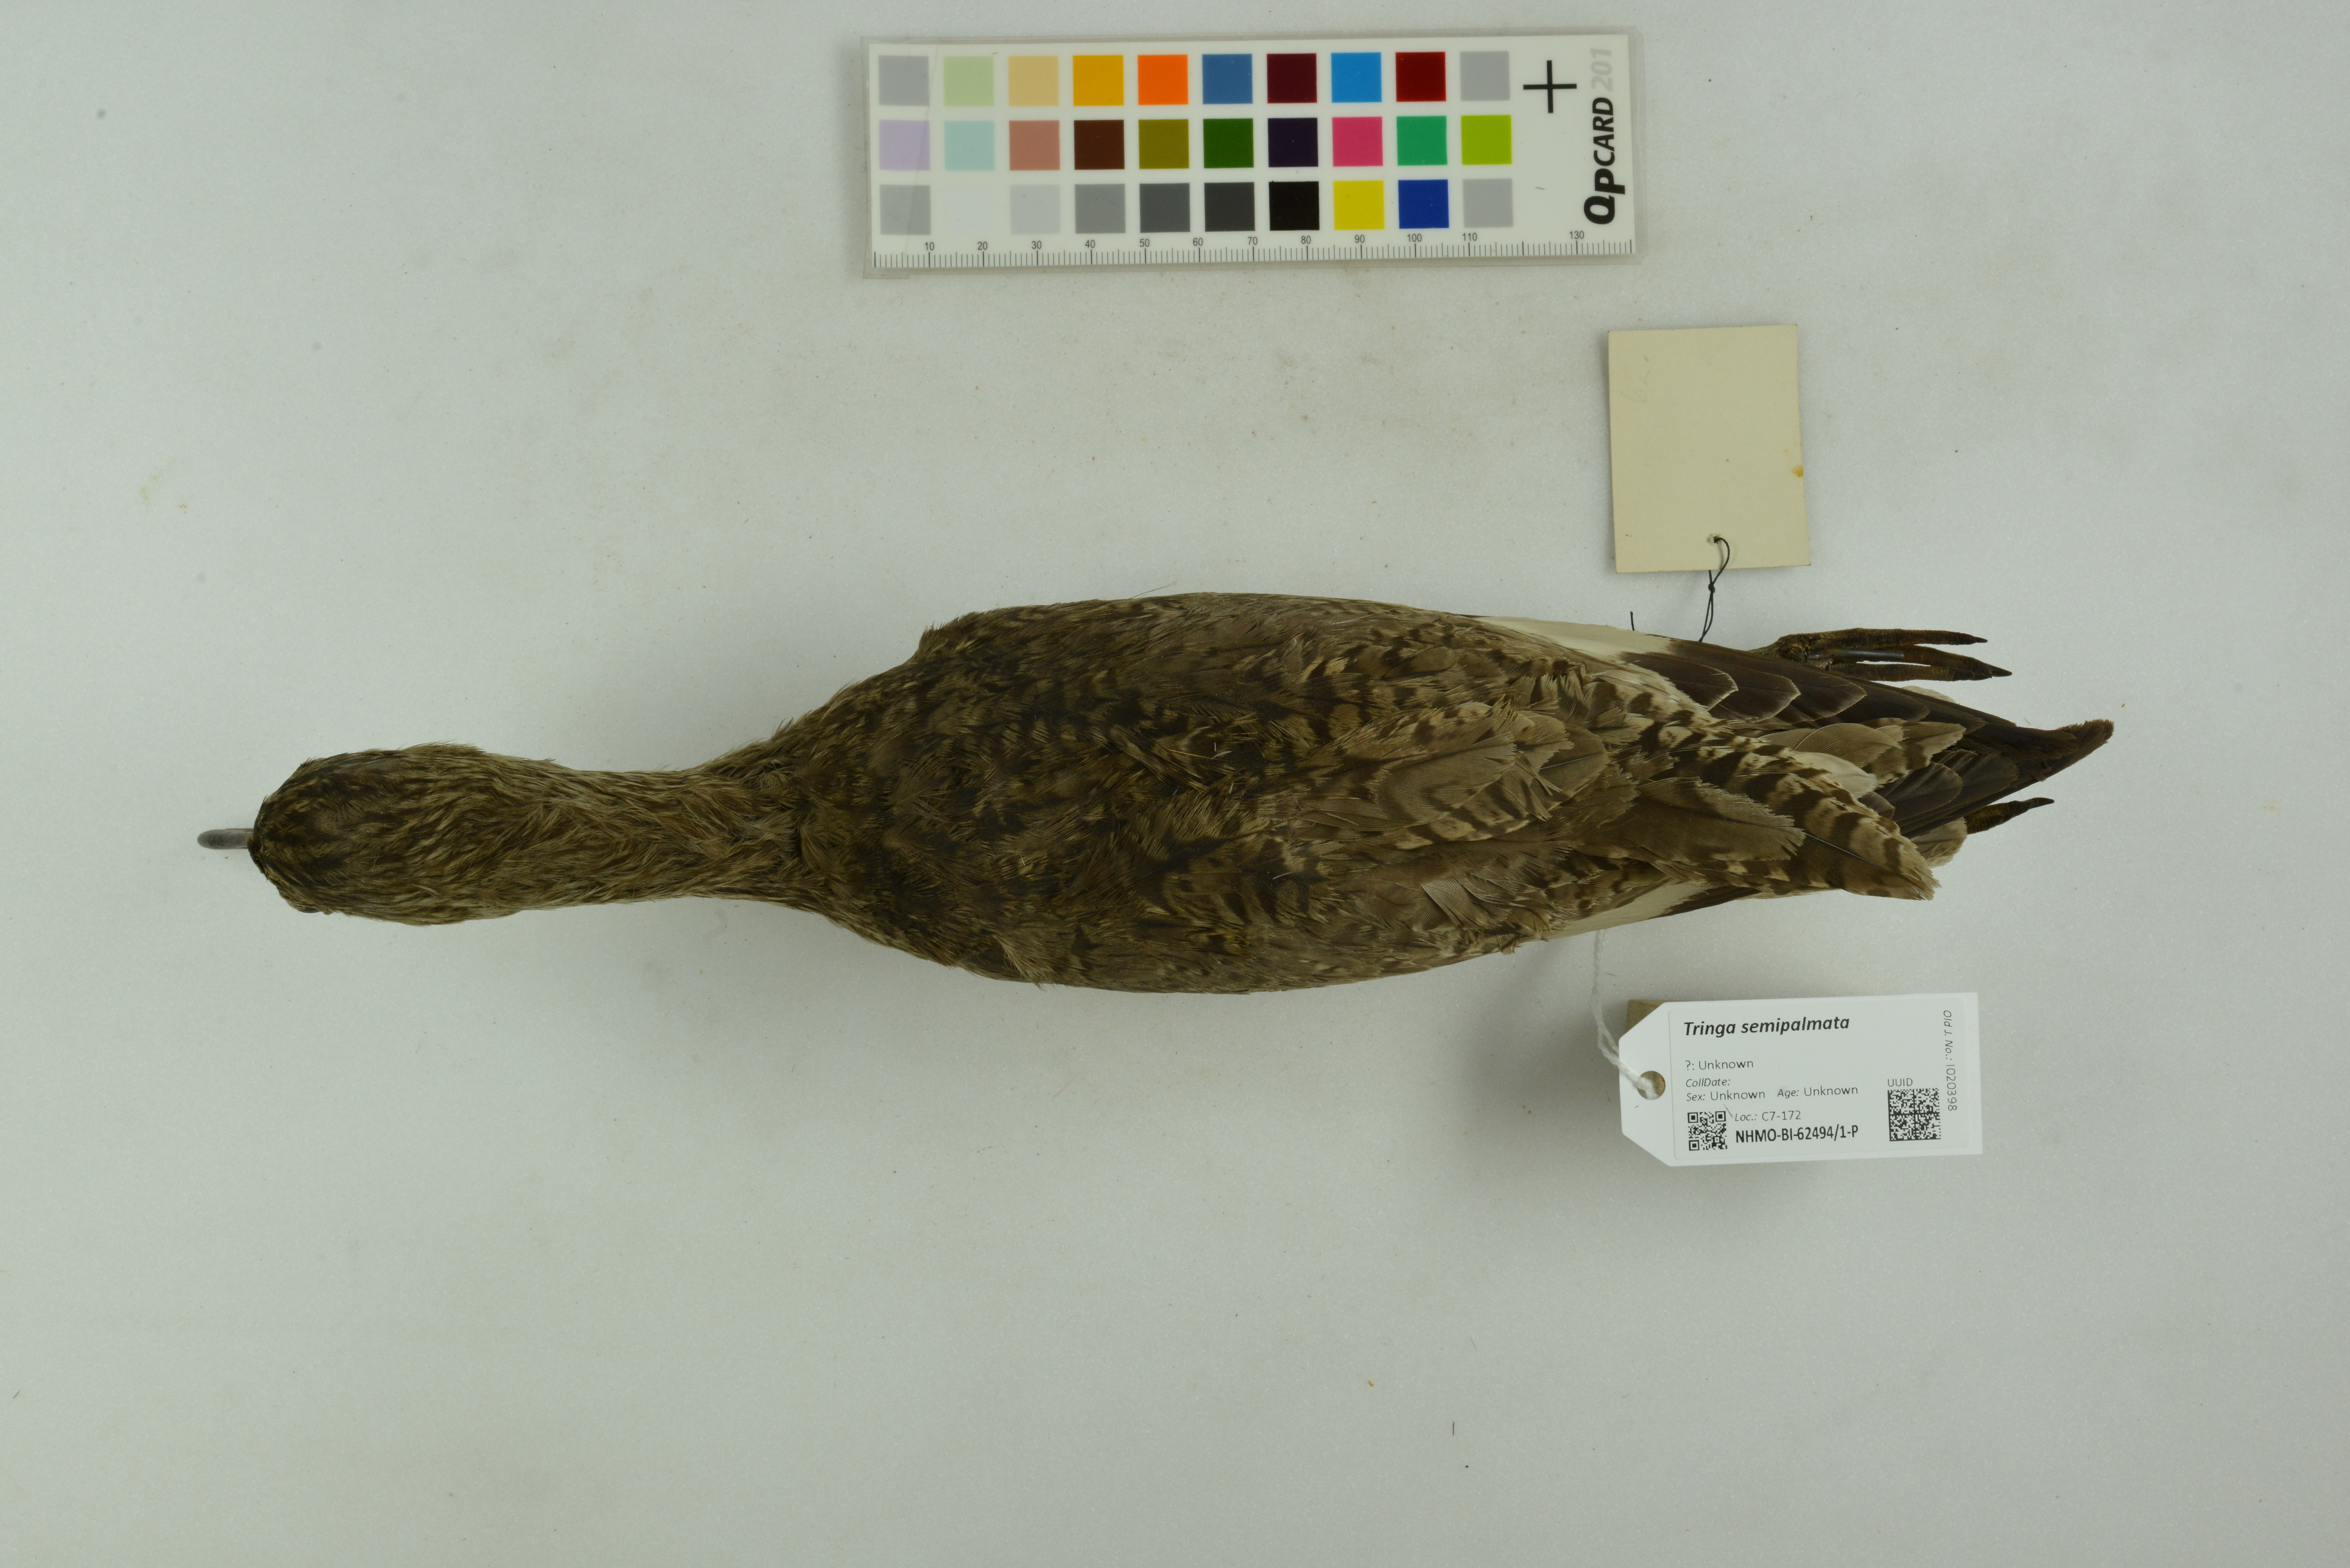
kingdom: Animalia
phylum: Chordata
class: Aves
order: Charadriiformes
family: Scolopacidae
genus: Tringa
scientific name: Tringa semipalmata
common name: Willet
